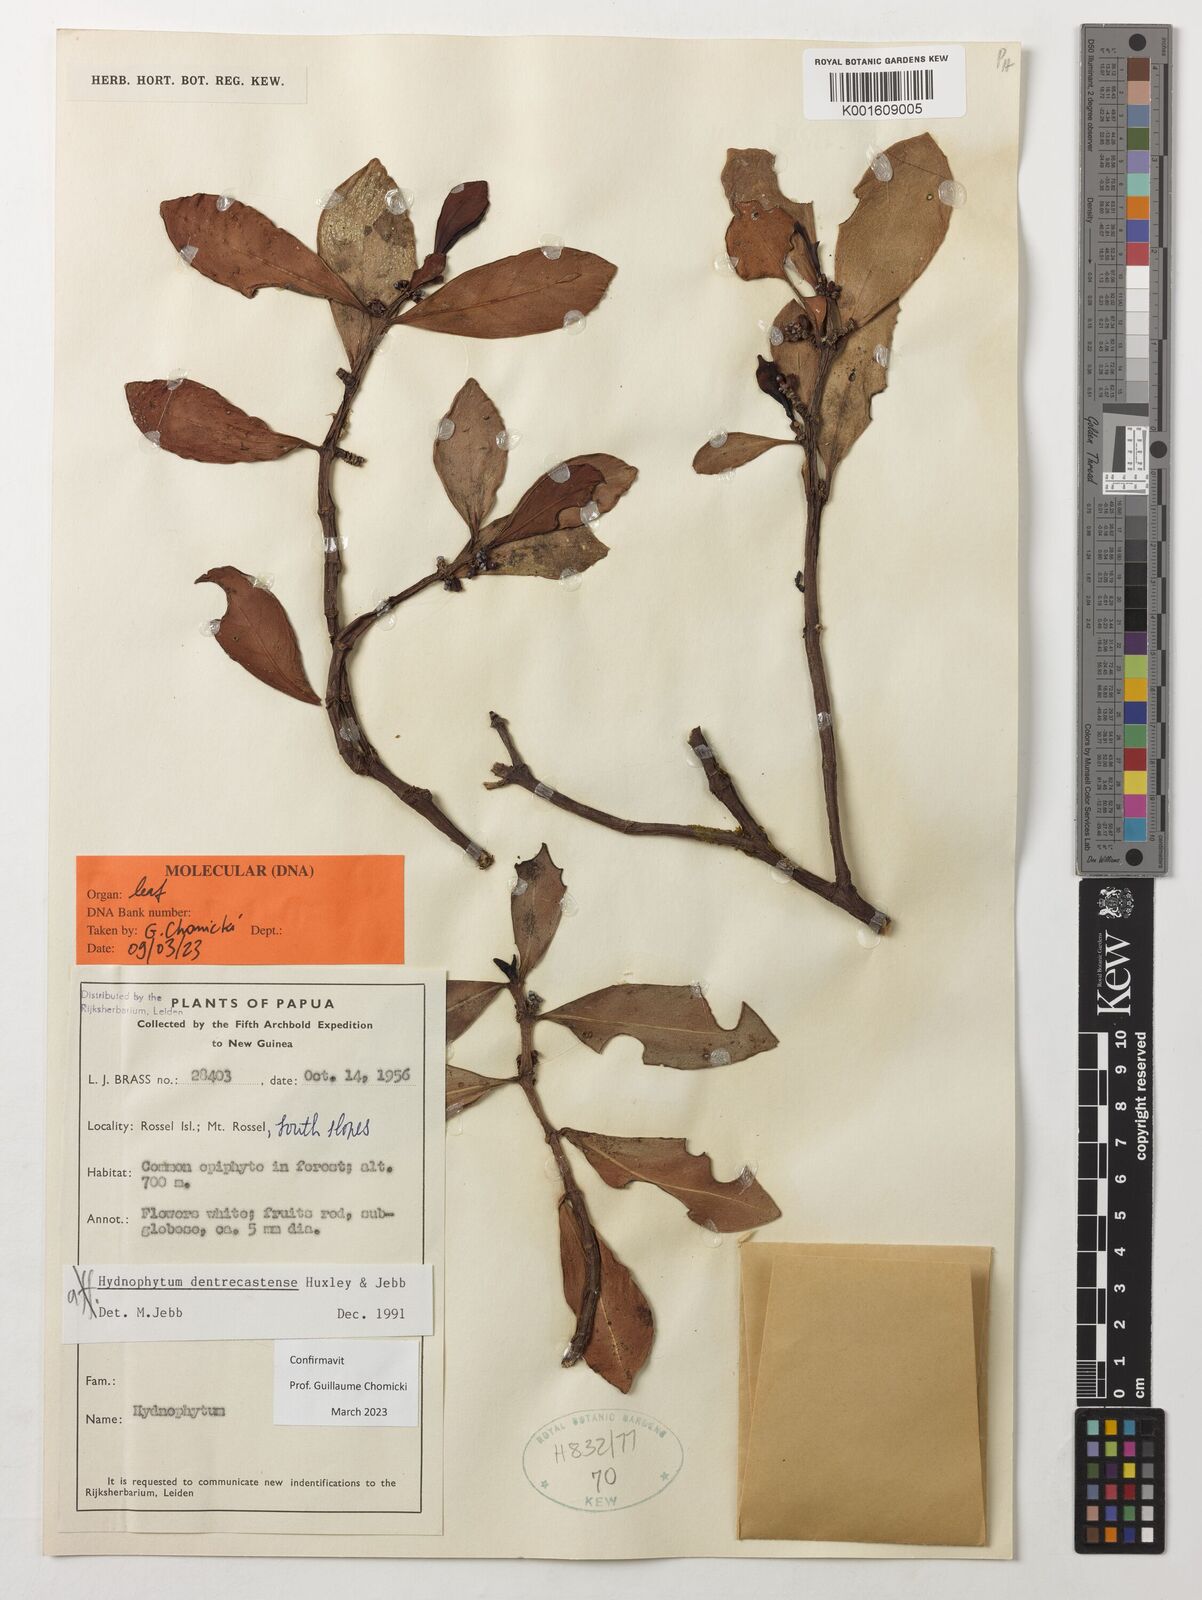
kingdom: Plantae
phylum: Tracheophyta
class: Magnoliopsida
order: Gentianales
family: Rubiaceae
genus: Hydnophytum
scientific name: Hydnophytum dentrecastense
